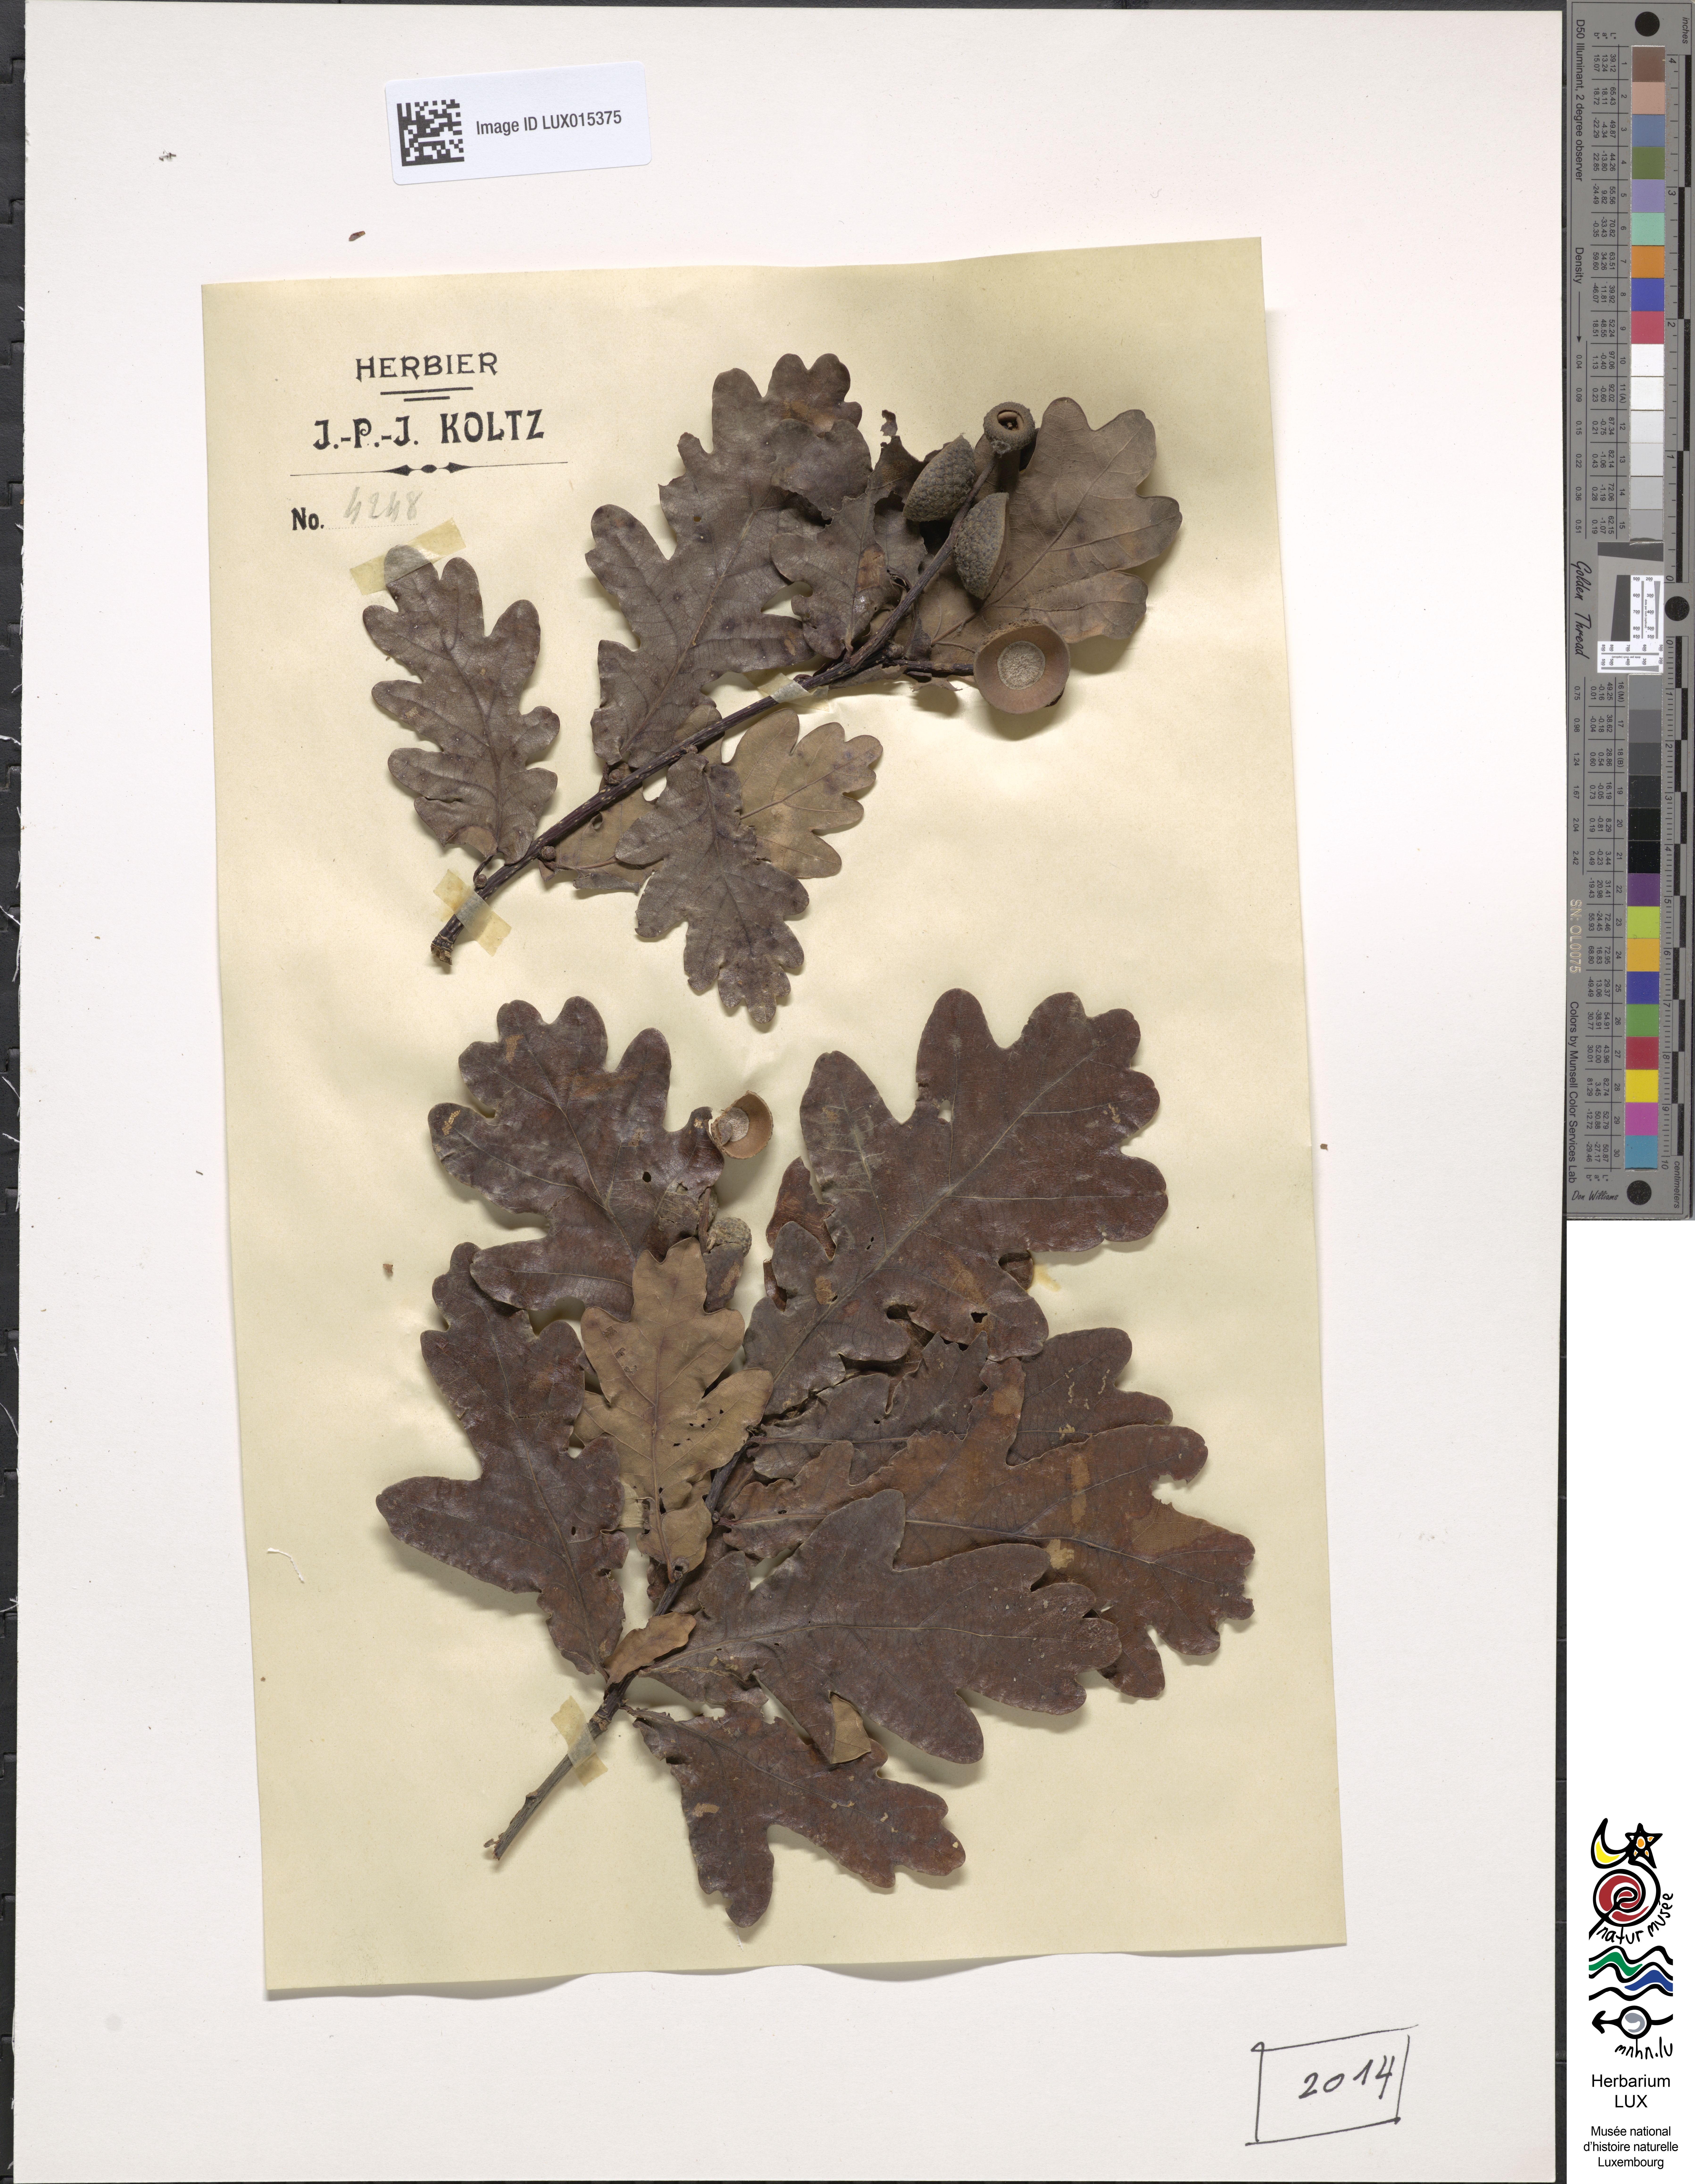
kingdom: Plantae
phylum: Tracheophyta
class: Magnoliopsida
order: Fagales
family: Fagaceae
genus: Quercus
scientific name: Quercus robur
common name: Pedunculate oak
